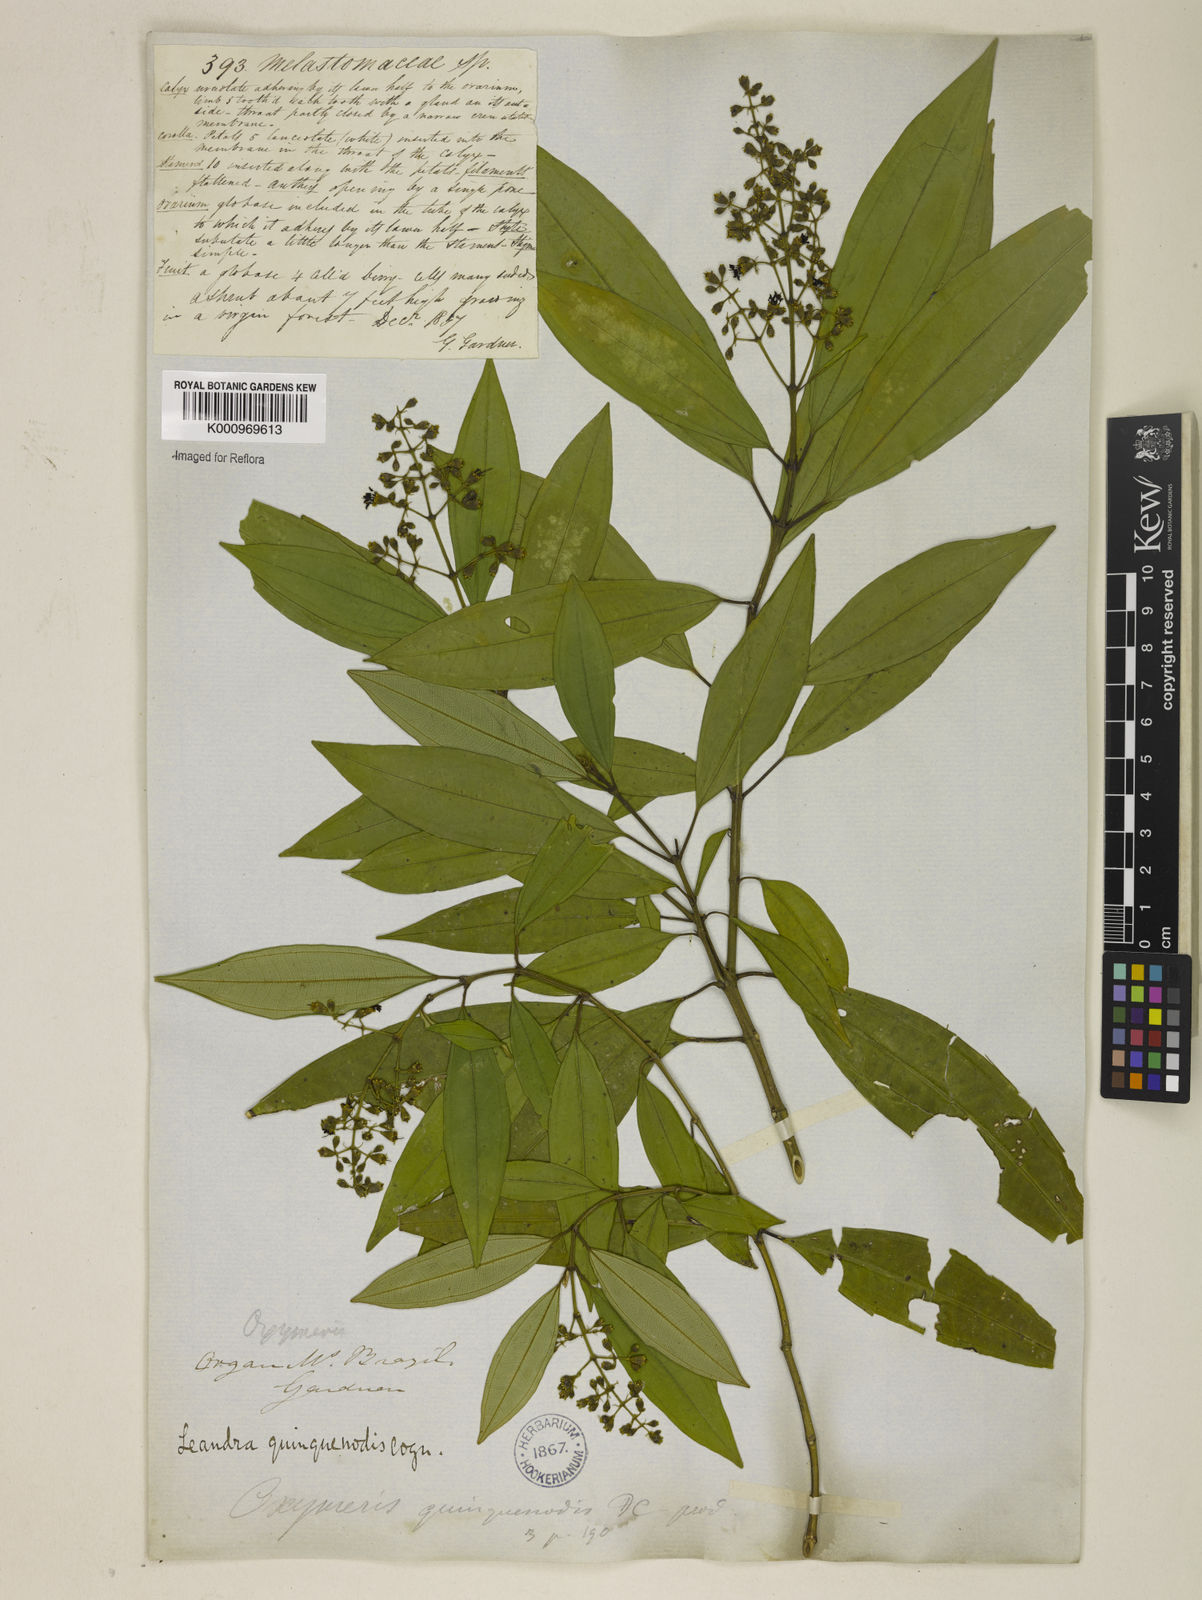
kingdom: Plantae
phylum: Tracheophyta
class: Magnoliopsida
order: Myrtales
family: Melastomataceae
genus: Miconia
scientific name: Miconia quinquenodis
